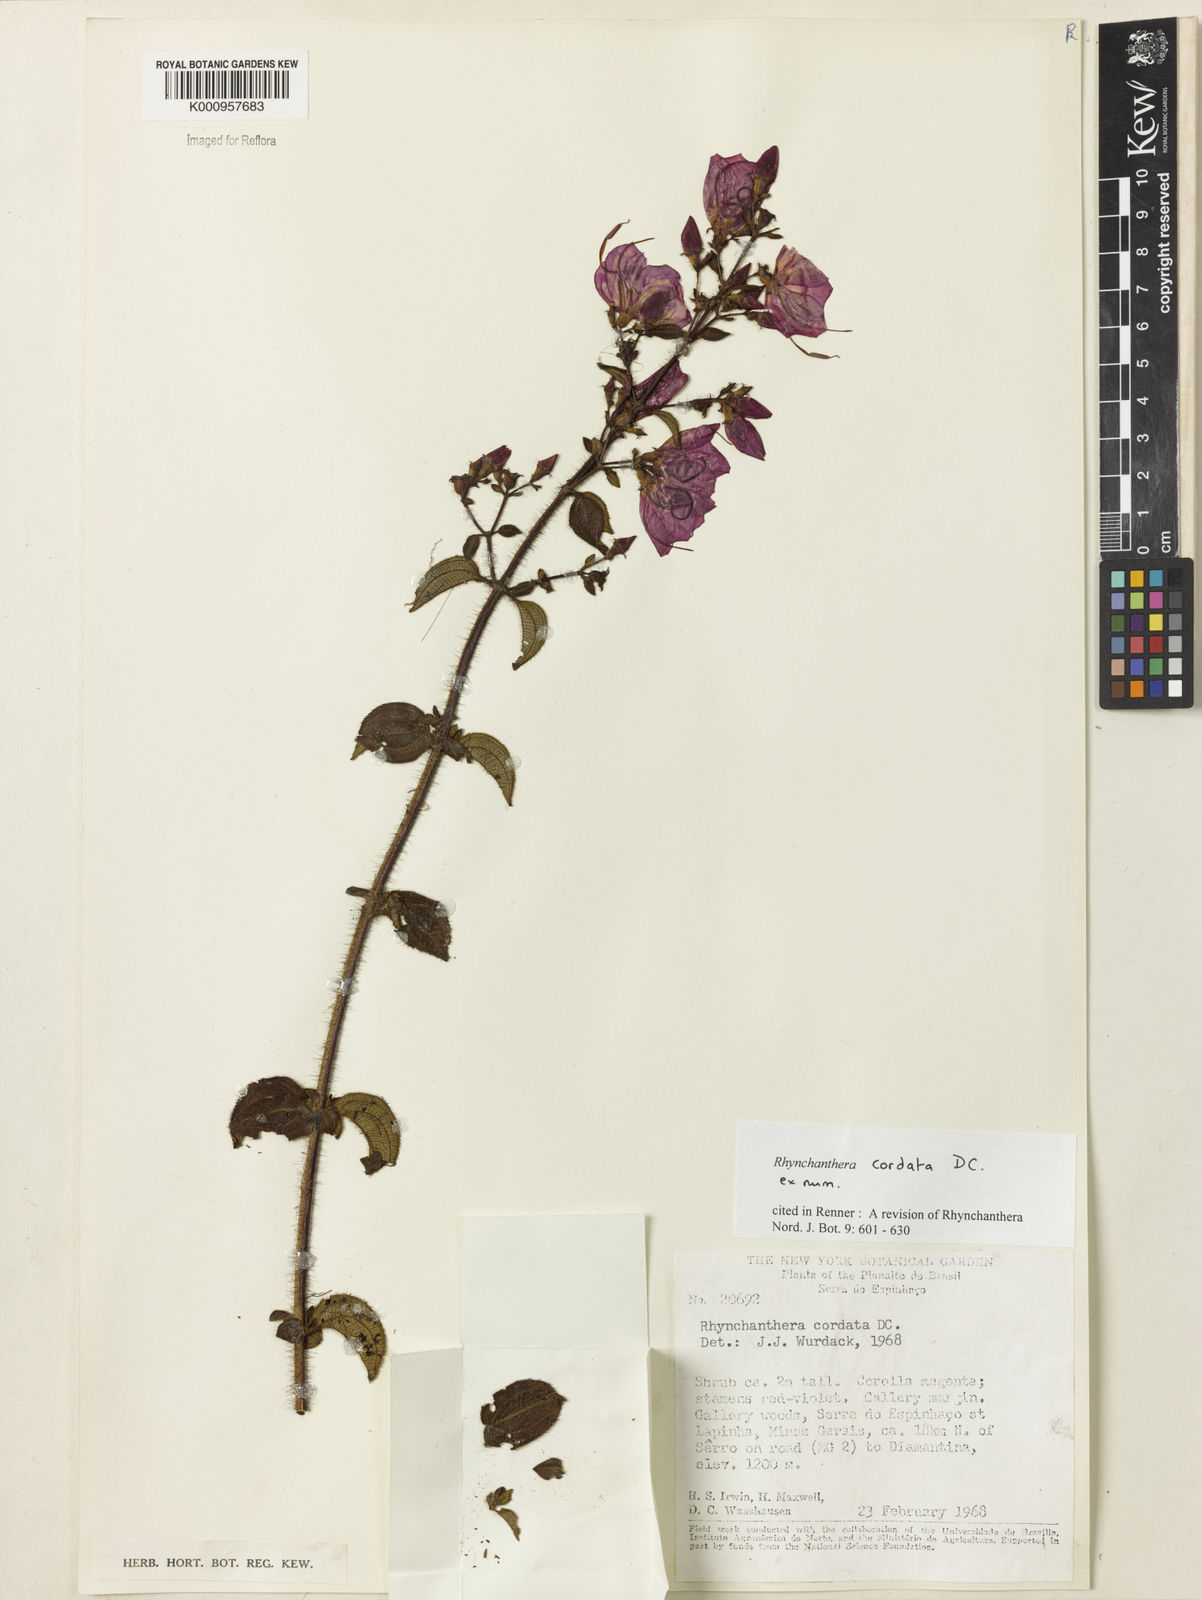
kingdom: Plantae
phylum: Tracheophyta
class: Magnoliopsida
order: Myrtales
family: Melastomataceae
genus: Rhynchanthera
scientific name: Rhynchanthera cordata
